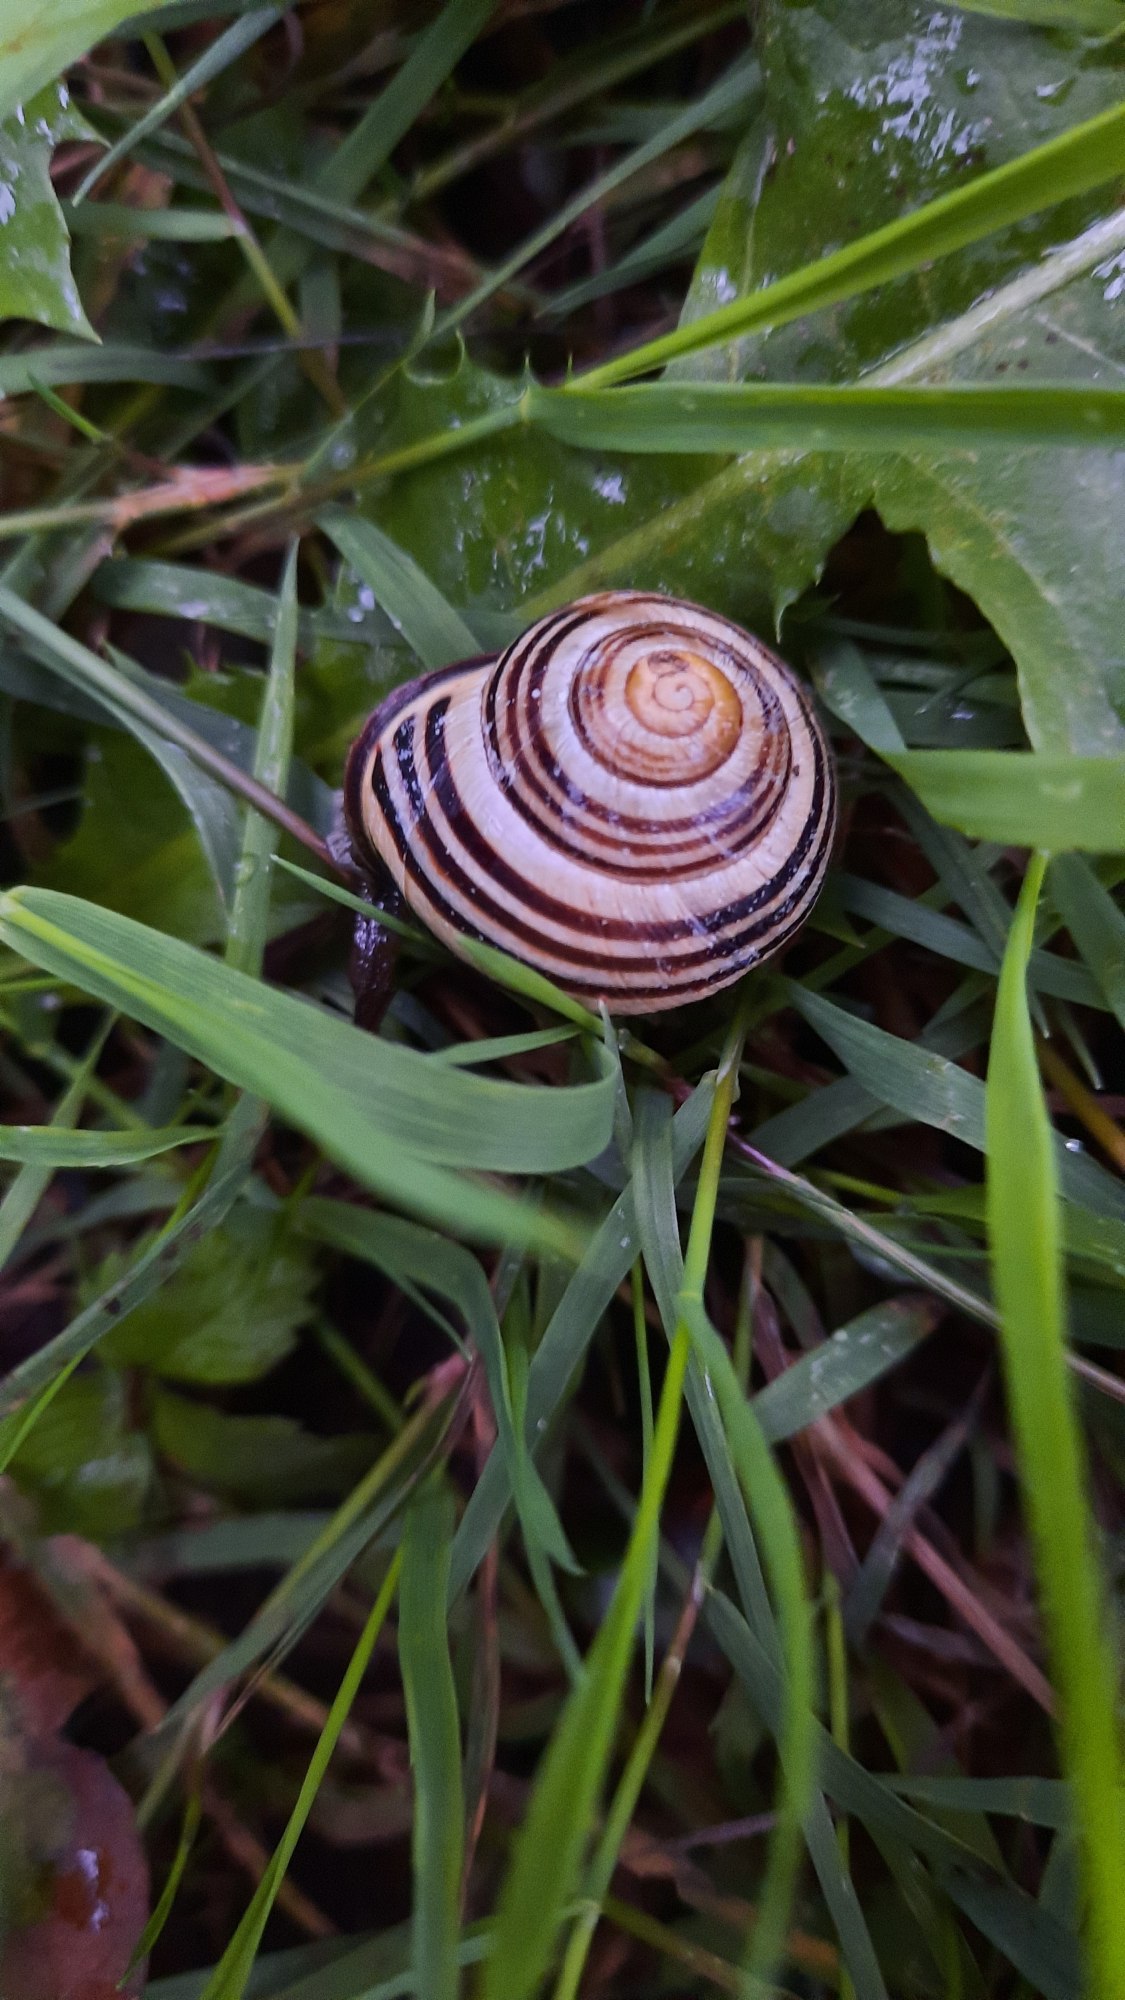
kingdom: Animalia
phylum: Mollusca
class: Gastropoda
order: Stylommatophora
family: Helicidae
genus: Cepaea
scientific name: Cepaea nemoralis
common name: Lundsnegl
